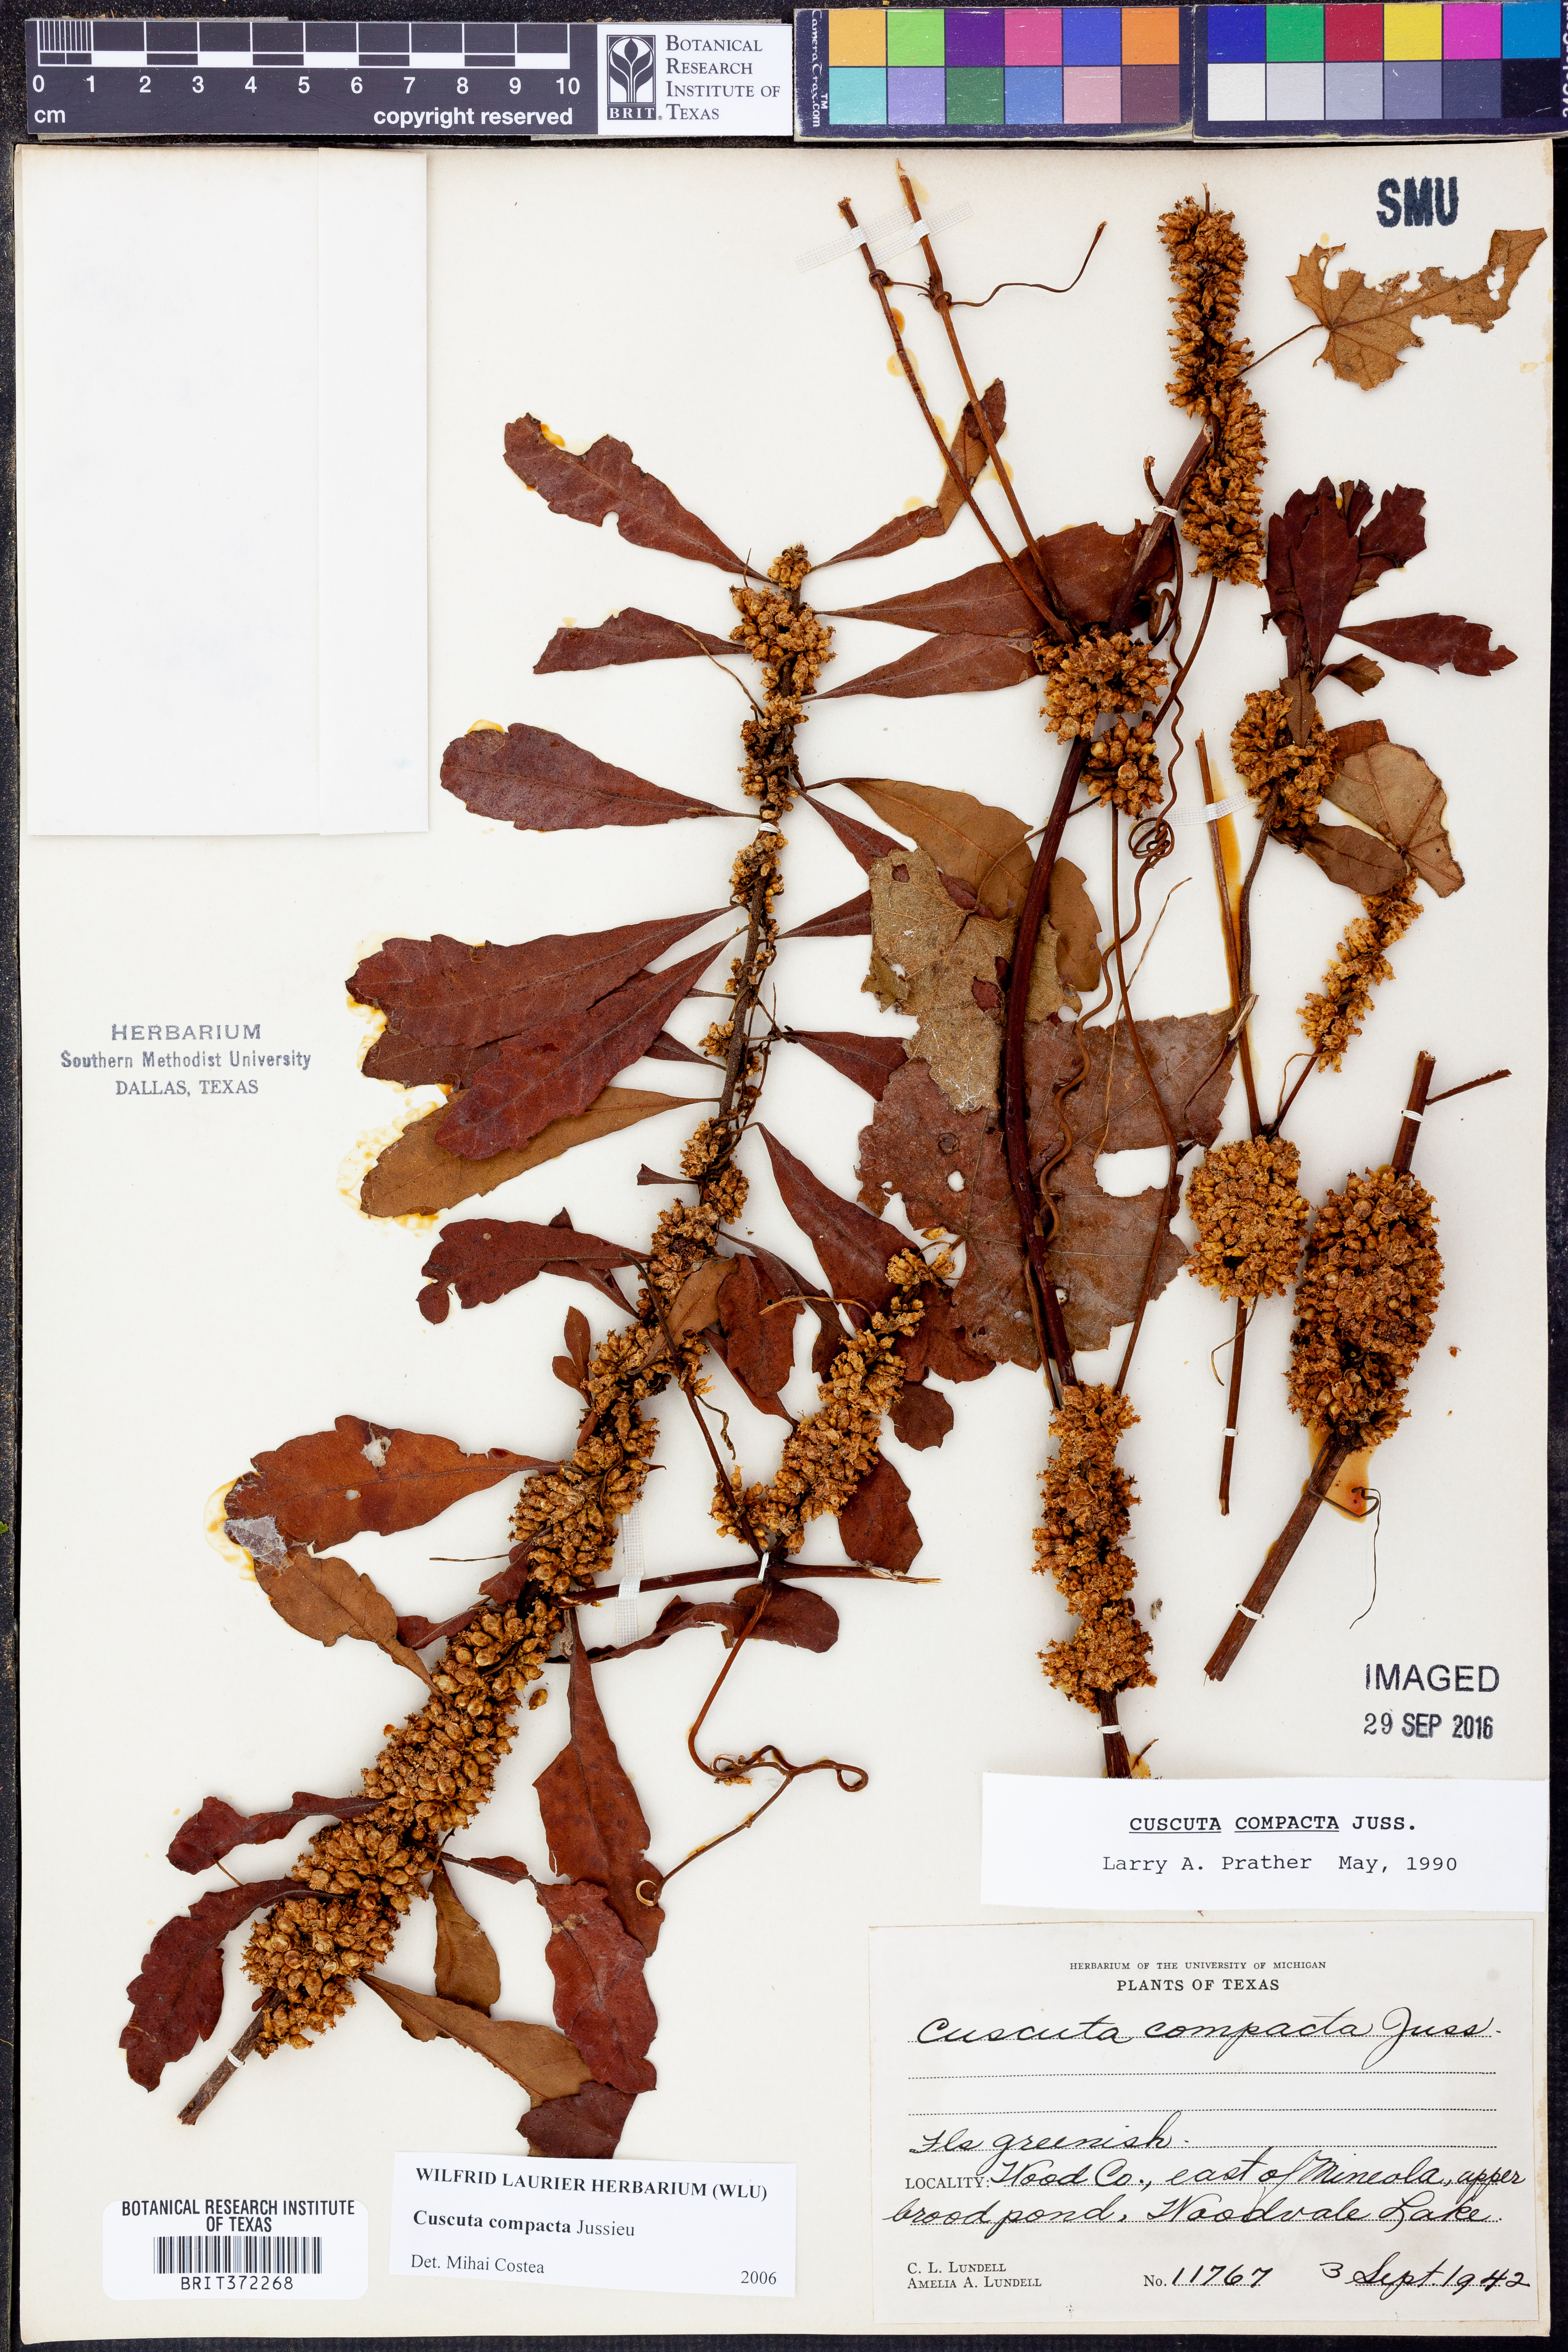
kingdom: Plantae
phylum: Tracheophyta
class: Magnoliopsida
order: Solanales
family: Convolvulaceae
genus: Cuscuta
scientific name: Cuscuta compacta
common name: Compact dodder
